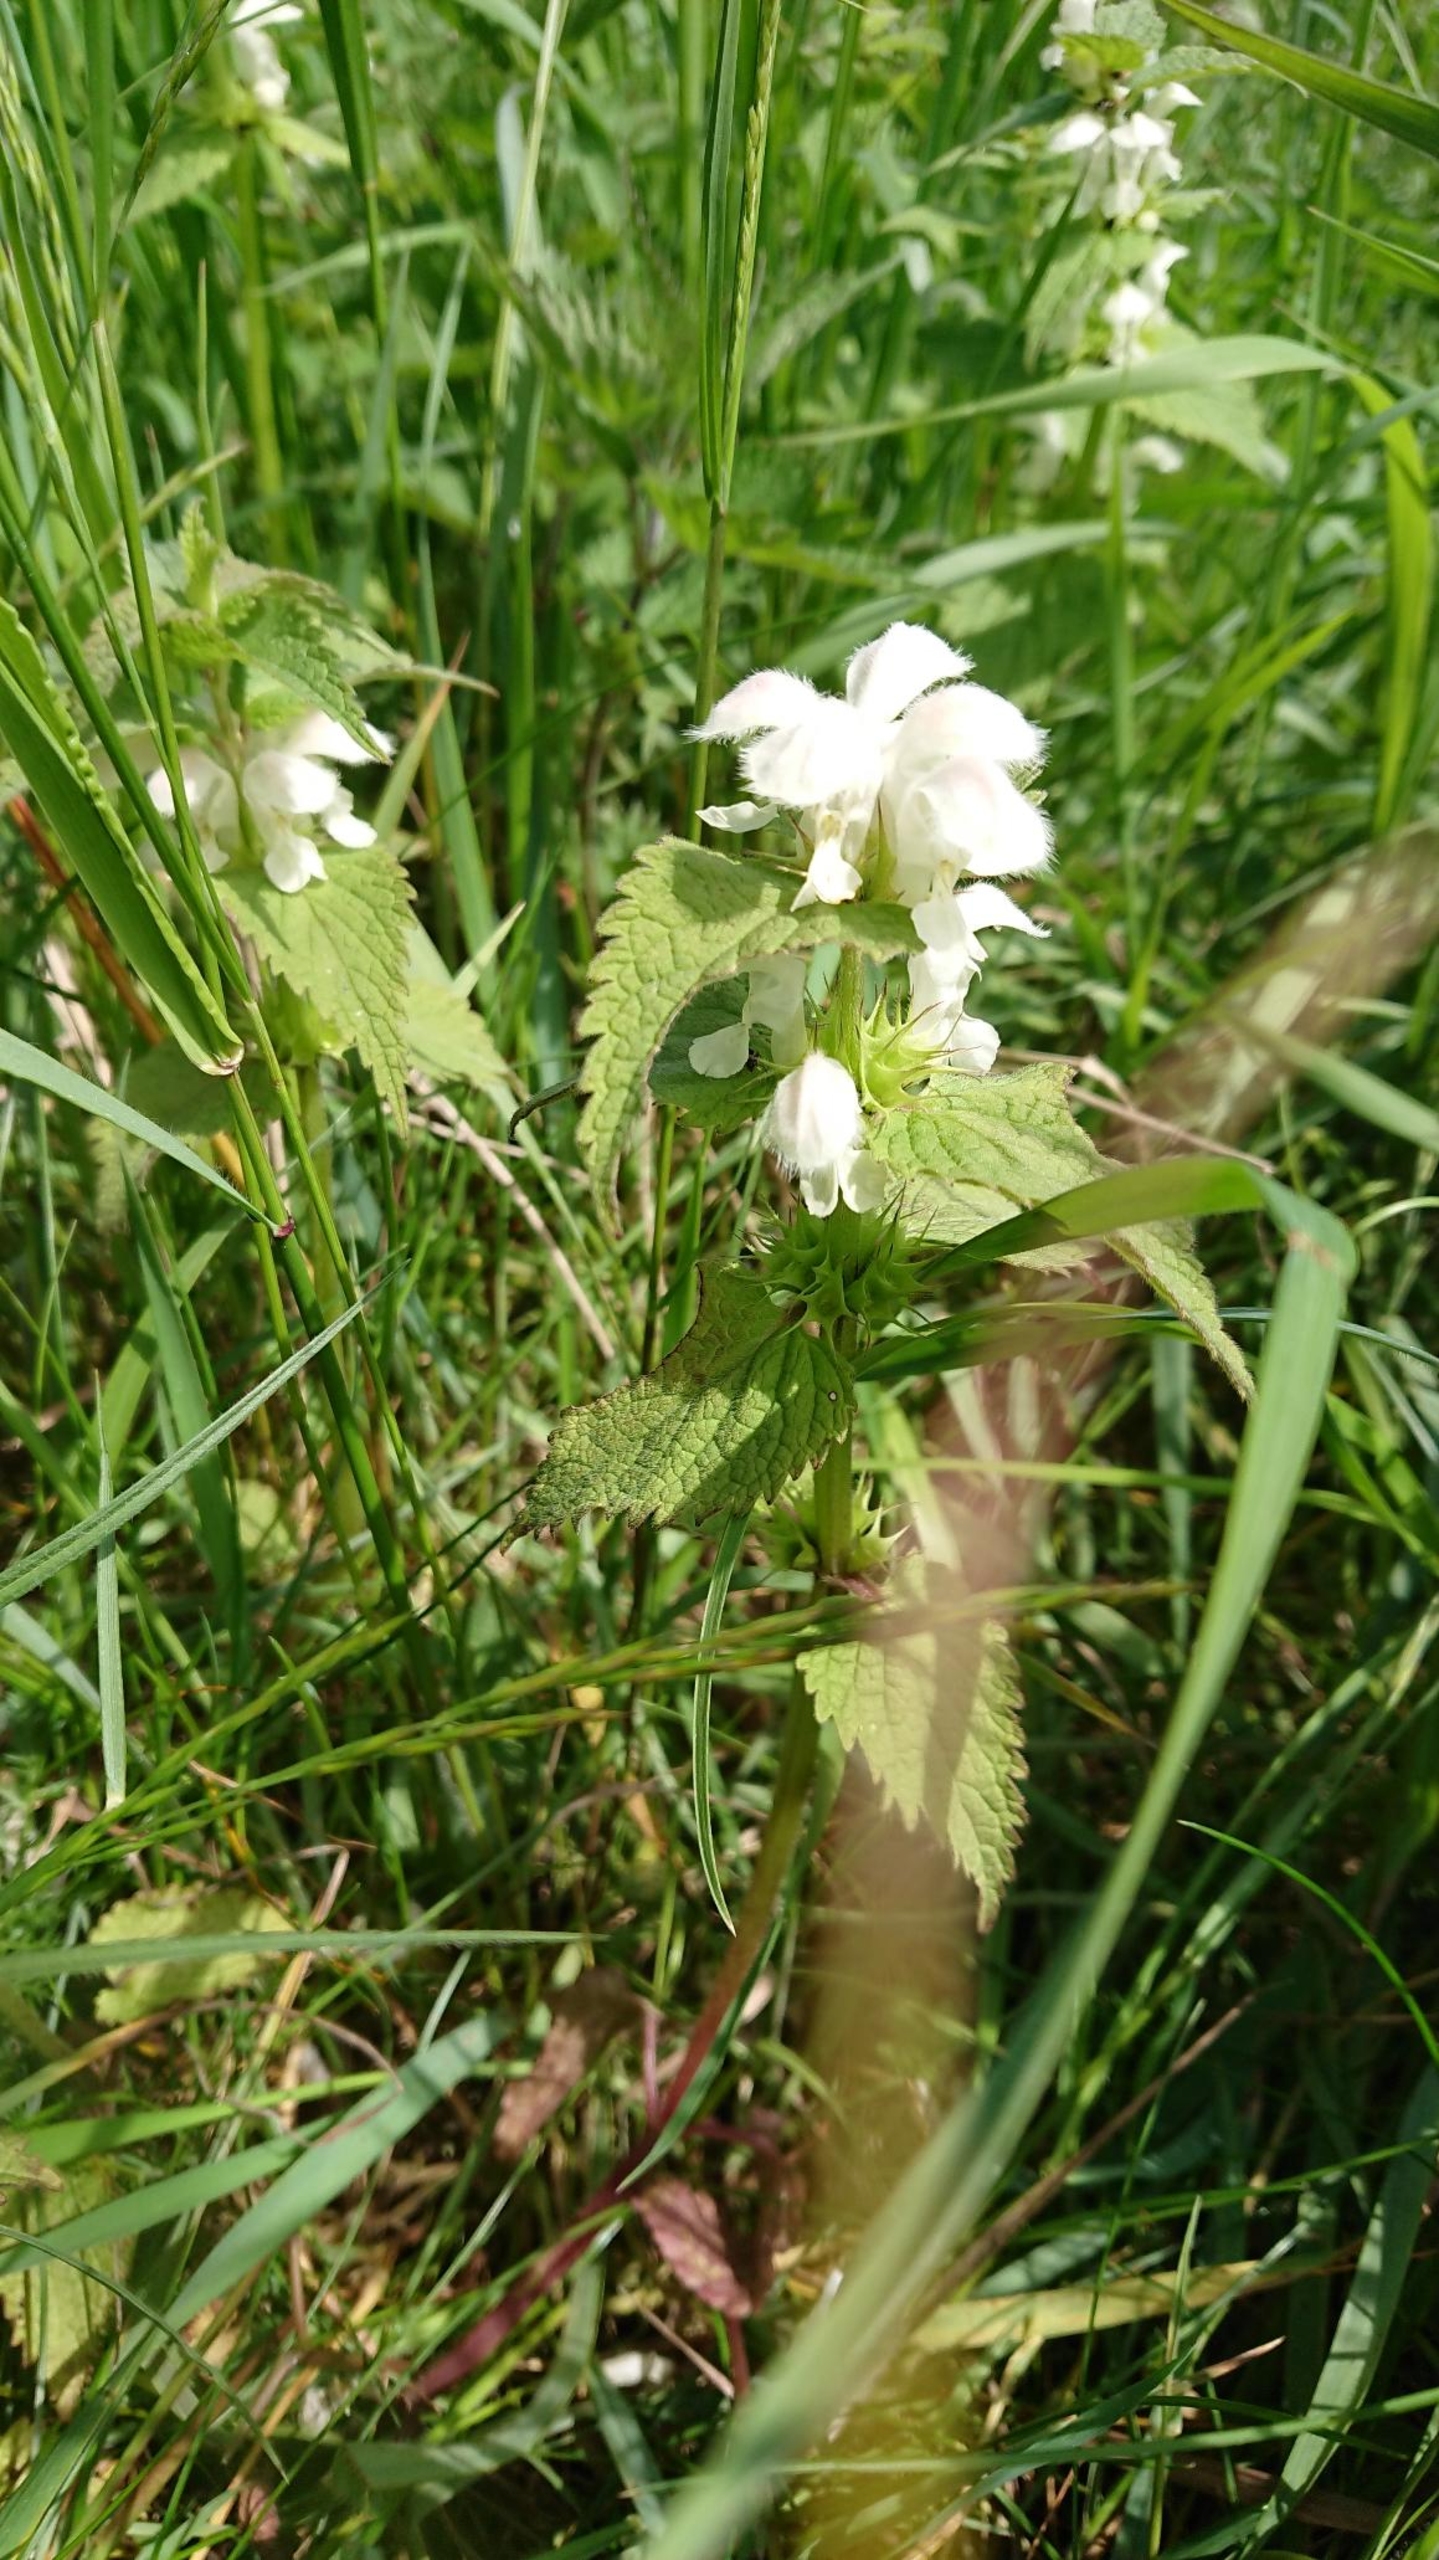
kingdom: Plantae
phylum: Tracheophyta
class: Magnoliopsida
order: Lamiales
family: Lamiaceae
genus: Lamium
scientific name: Lamium album
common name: Døvnælde
